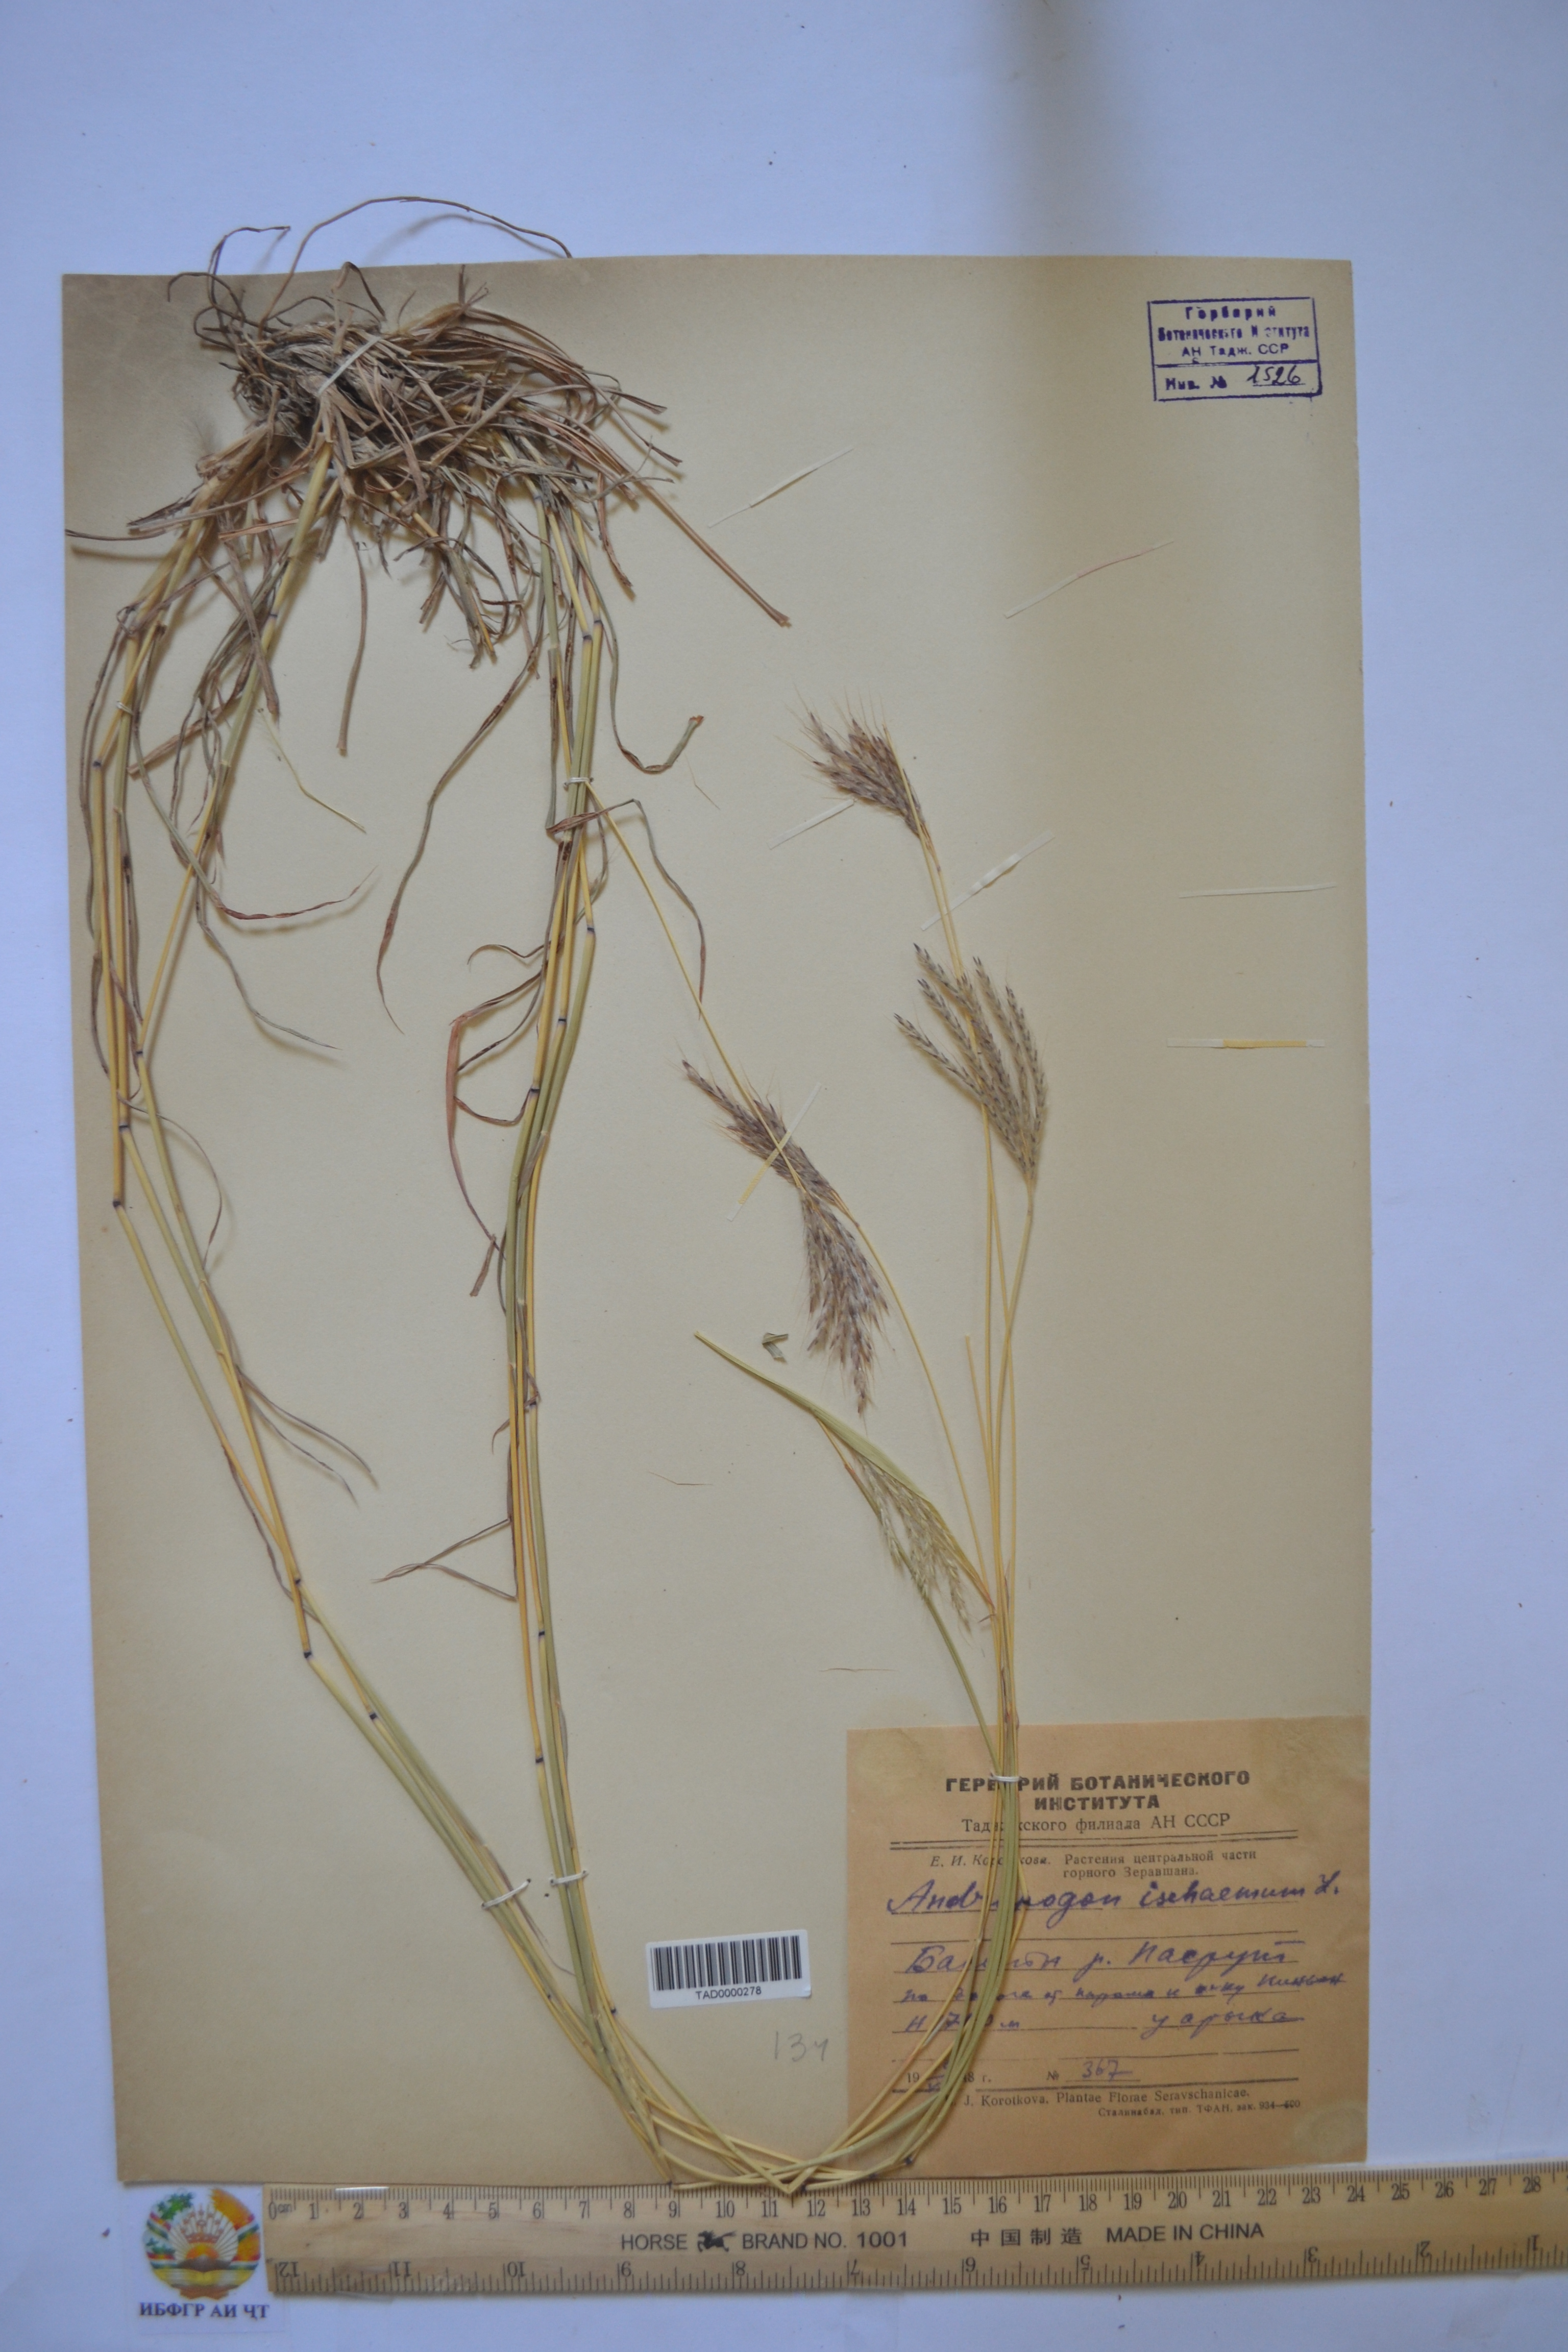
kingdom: Plantae
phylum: Tracheophyta
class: Liliopsida
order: Poales
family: Poaceae
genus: Bothriochloa
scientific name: Bothriochloa ischaemum
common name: Yellow bluestem
